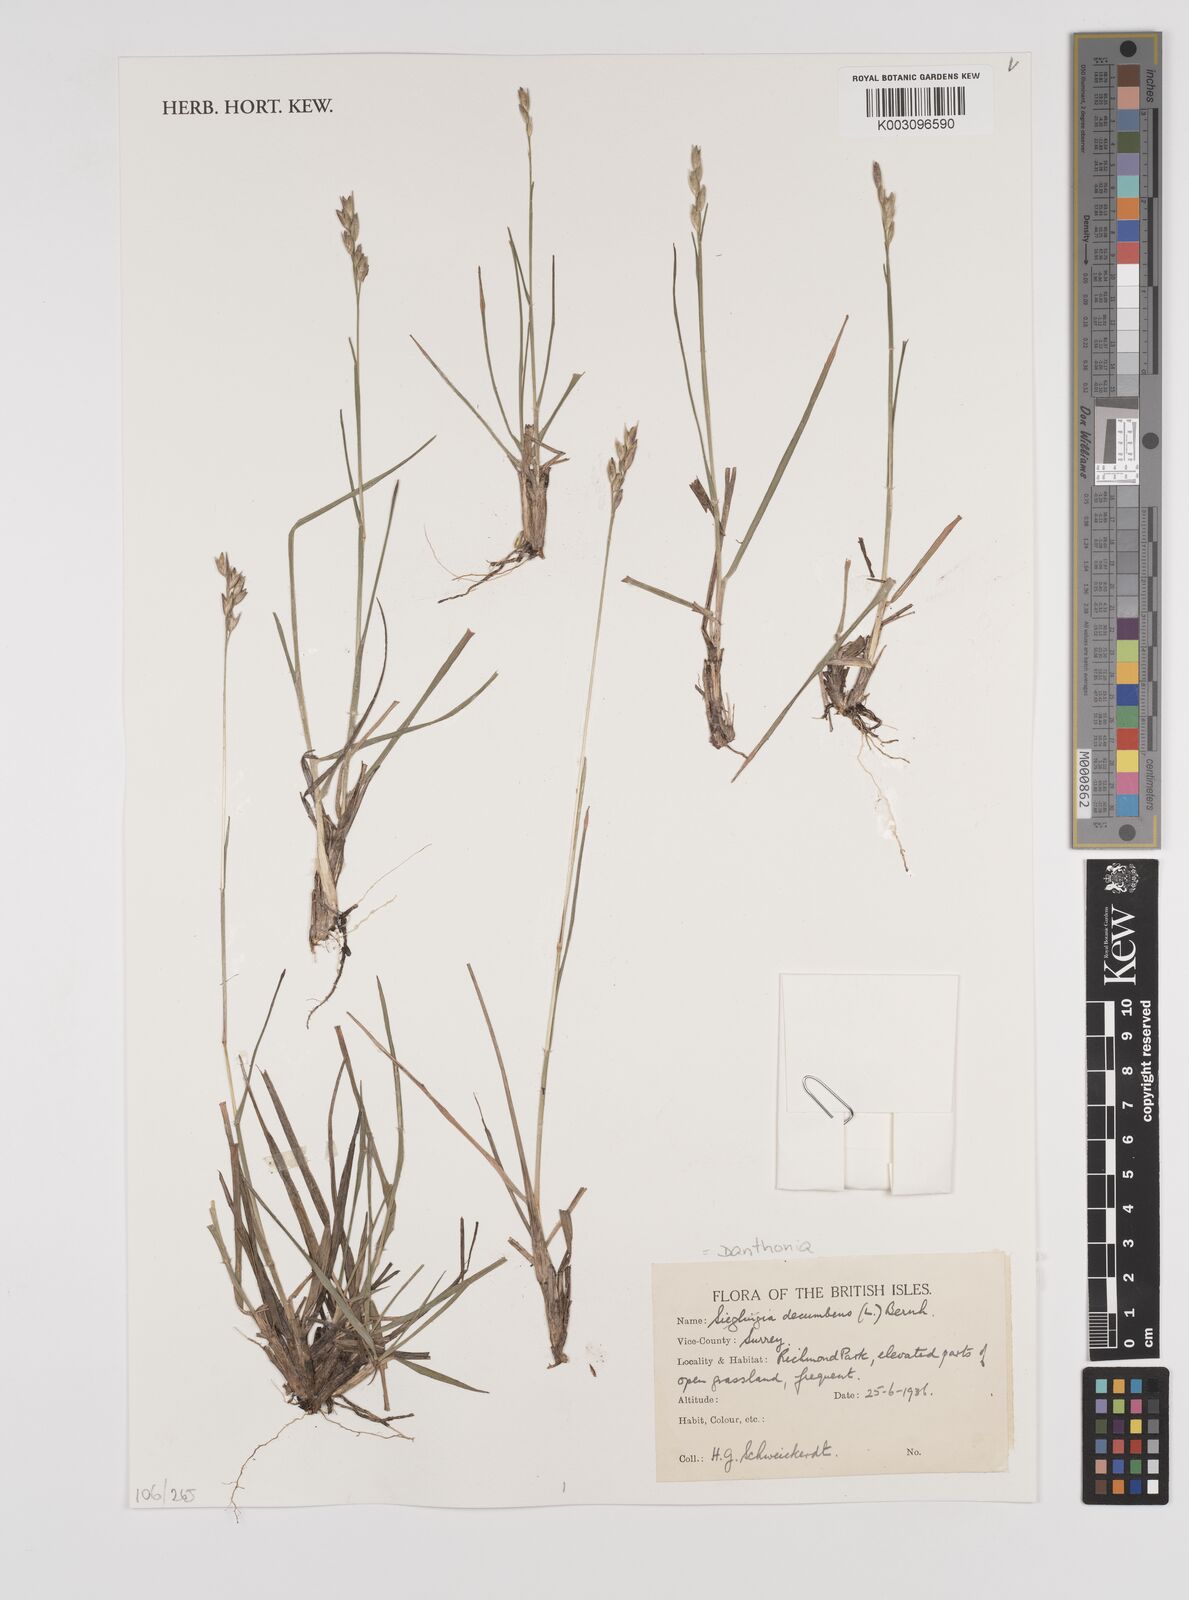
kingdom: Plantae
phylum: Tracheophyta
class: Liliopsida
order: Poales
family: Poaceae
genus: Danthonia
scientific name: Danthonia decumbens
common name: Common heathgrass
